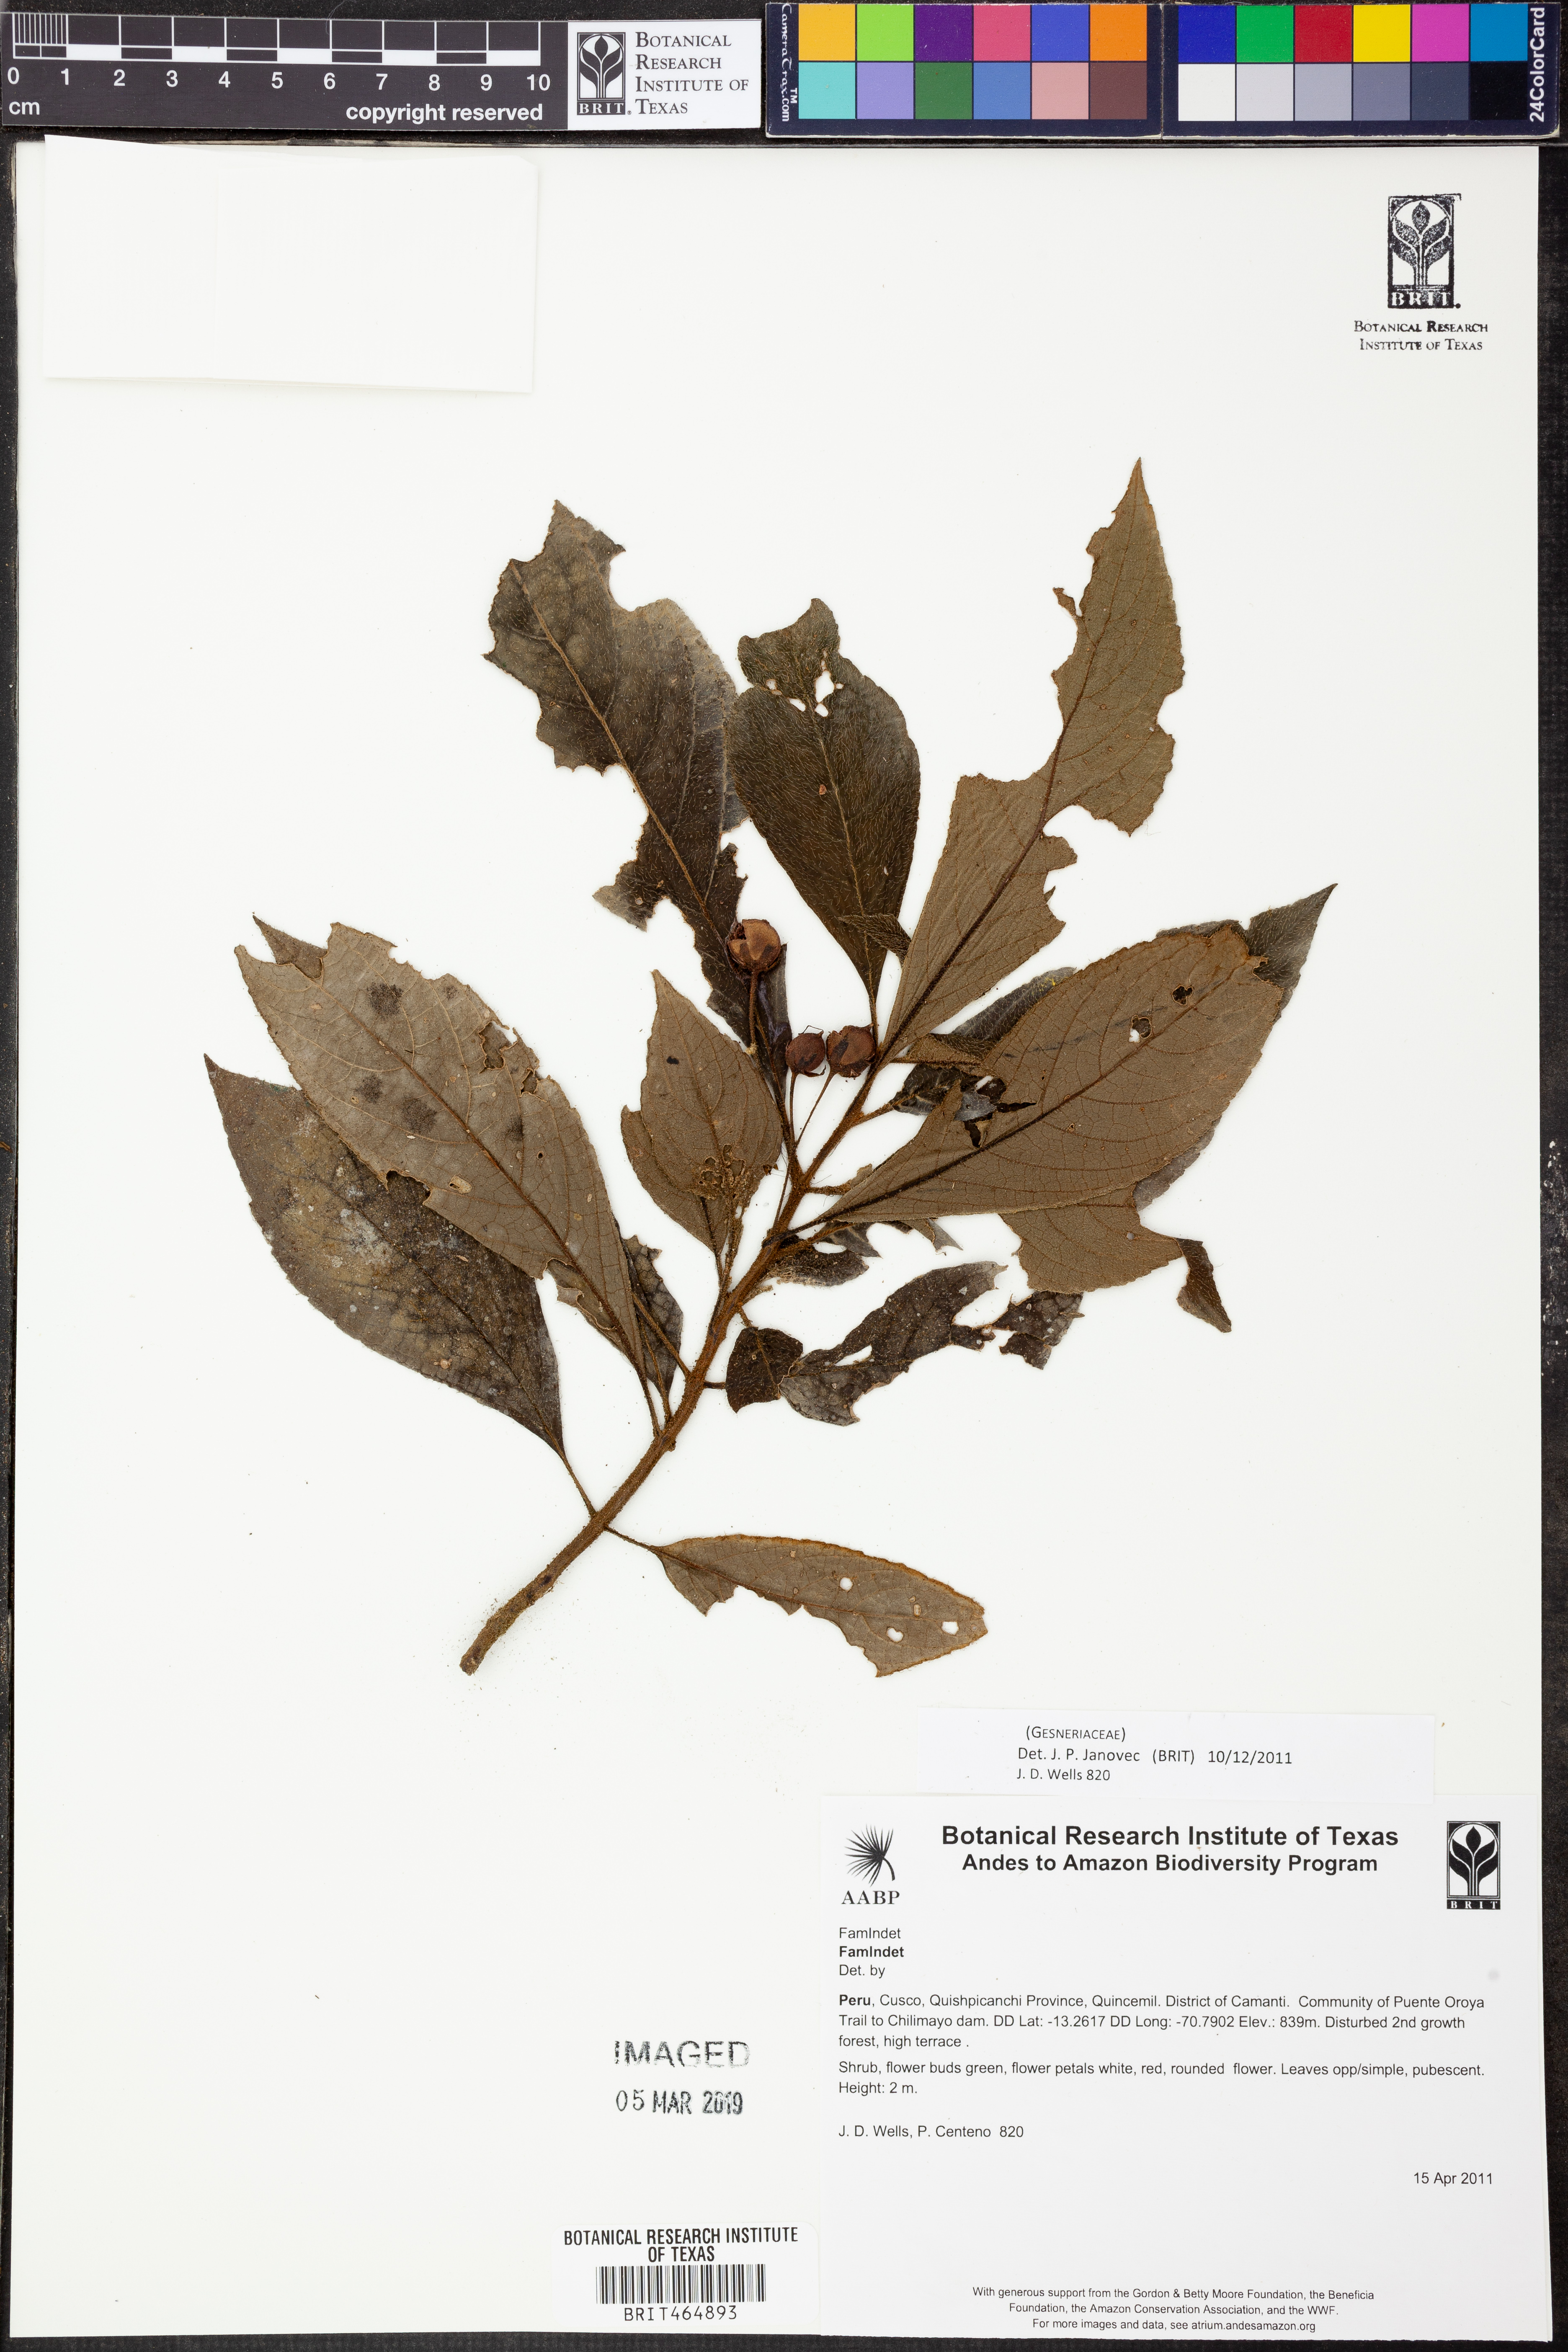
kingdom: Plantae
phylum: Tracheophyta
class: Magnoliopsida
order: Lamiales
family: Gesneriaceae
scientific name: Gesneriaceae
